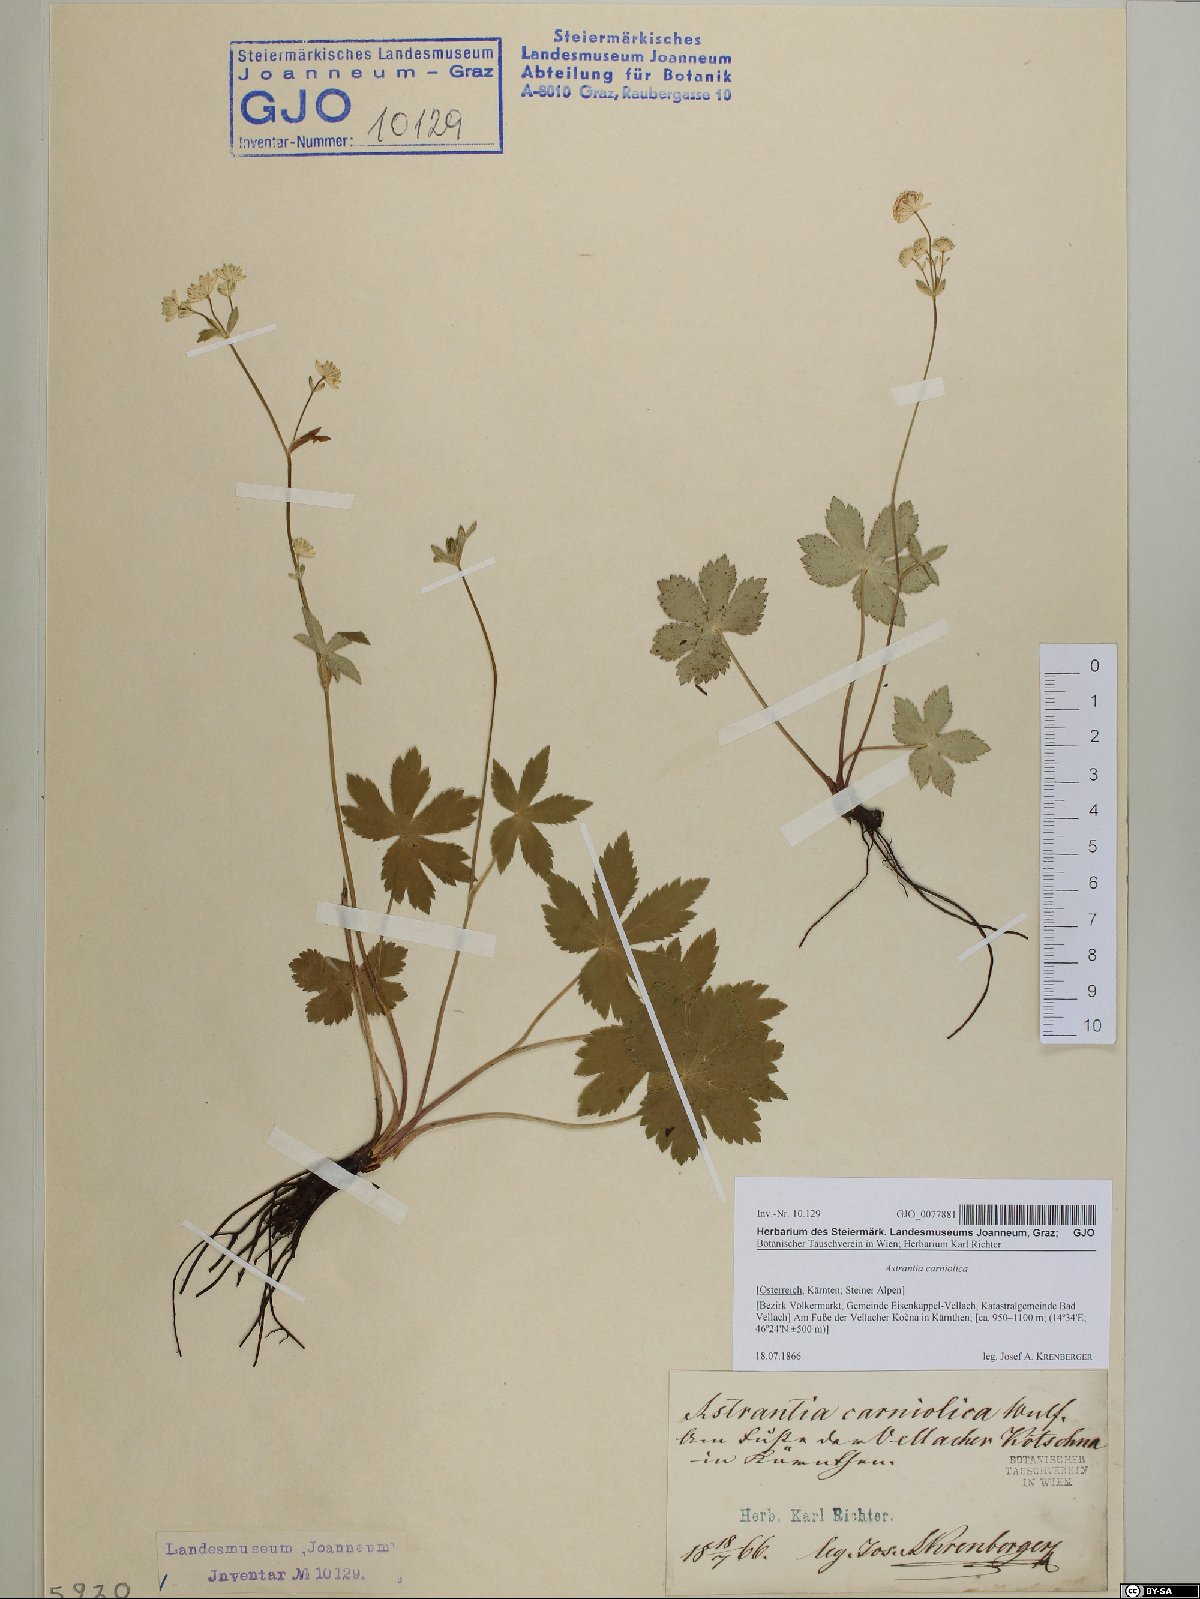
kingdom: Plantae
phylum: Tracheophyta
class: Magnoliopsida
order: Apiales
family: Apiaceae
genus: Astrantia
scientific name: Astrantia carniolica
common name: Carnic masterwort
